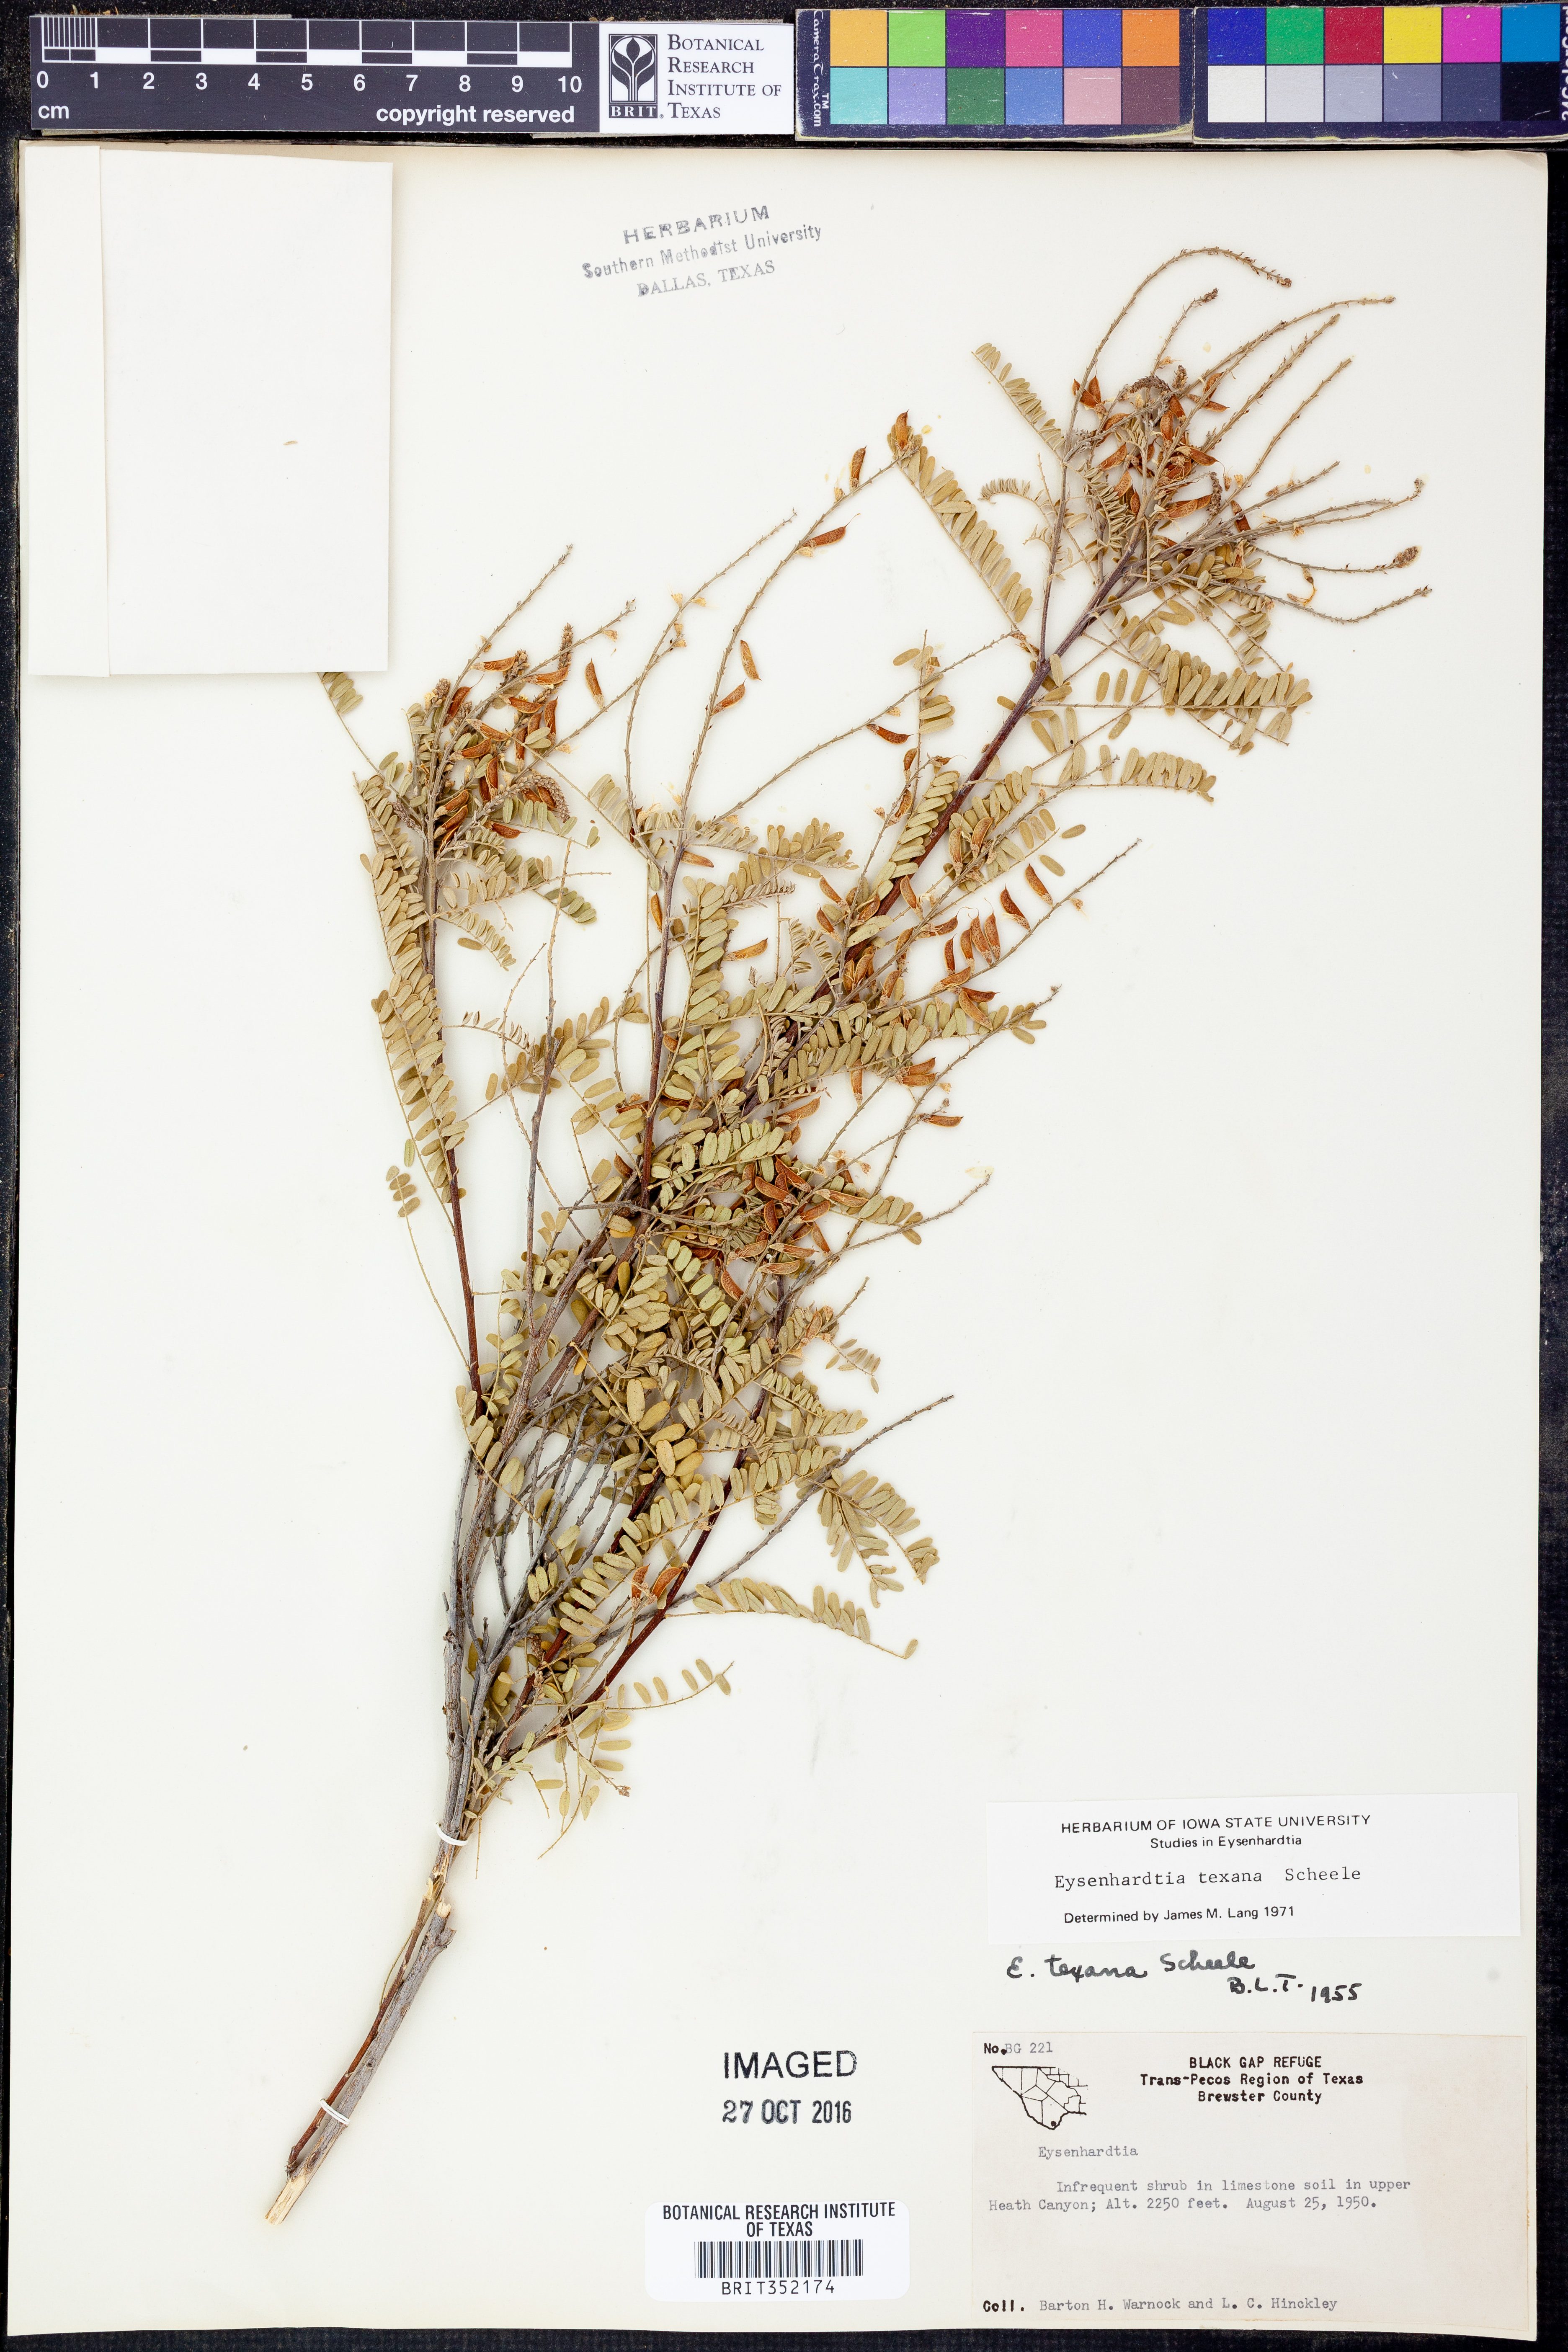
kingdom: Plantae
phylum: Tracheophyta
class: Magnoliopsida
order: Fabales
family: Fabaceae
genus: Eysenhardtia
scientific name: Eysenhardtia texana
